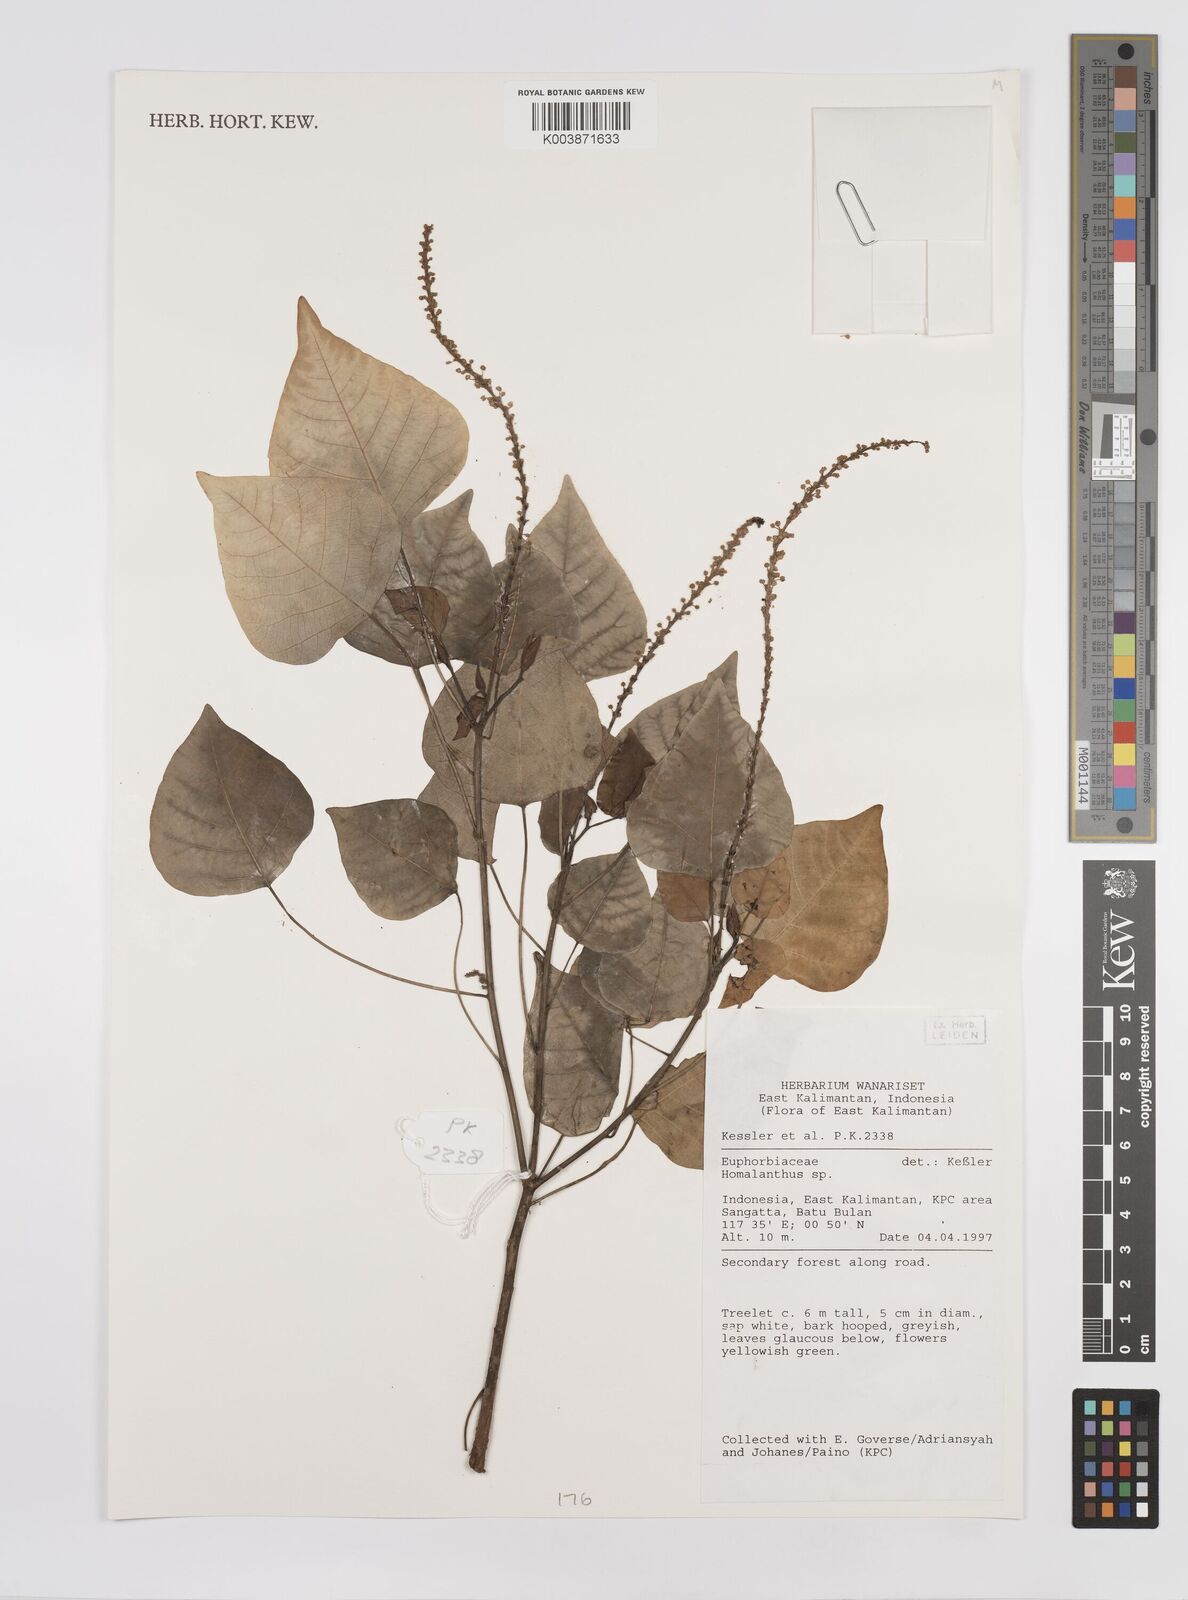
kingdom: Plantae
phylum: Tracheophyta
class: Magnoliopsida
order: Malpighiales
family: Euphorbiaceae
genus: Homalanthus
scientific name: Homalanthus
